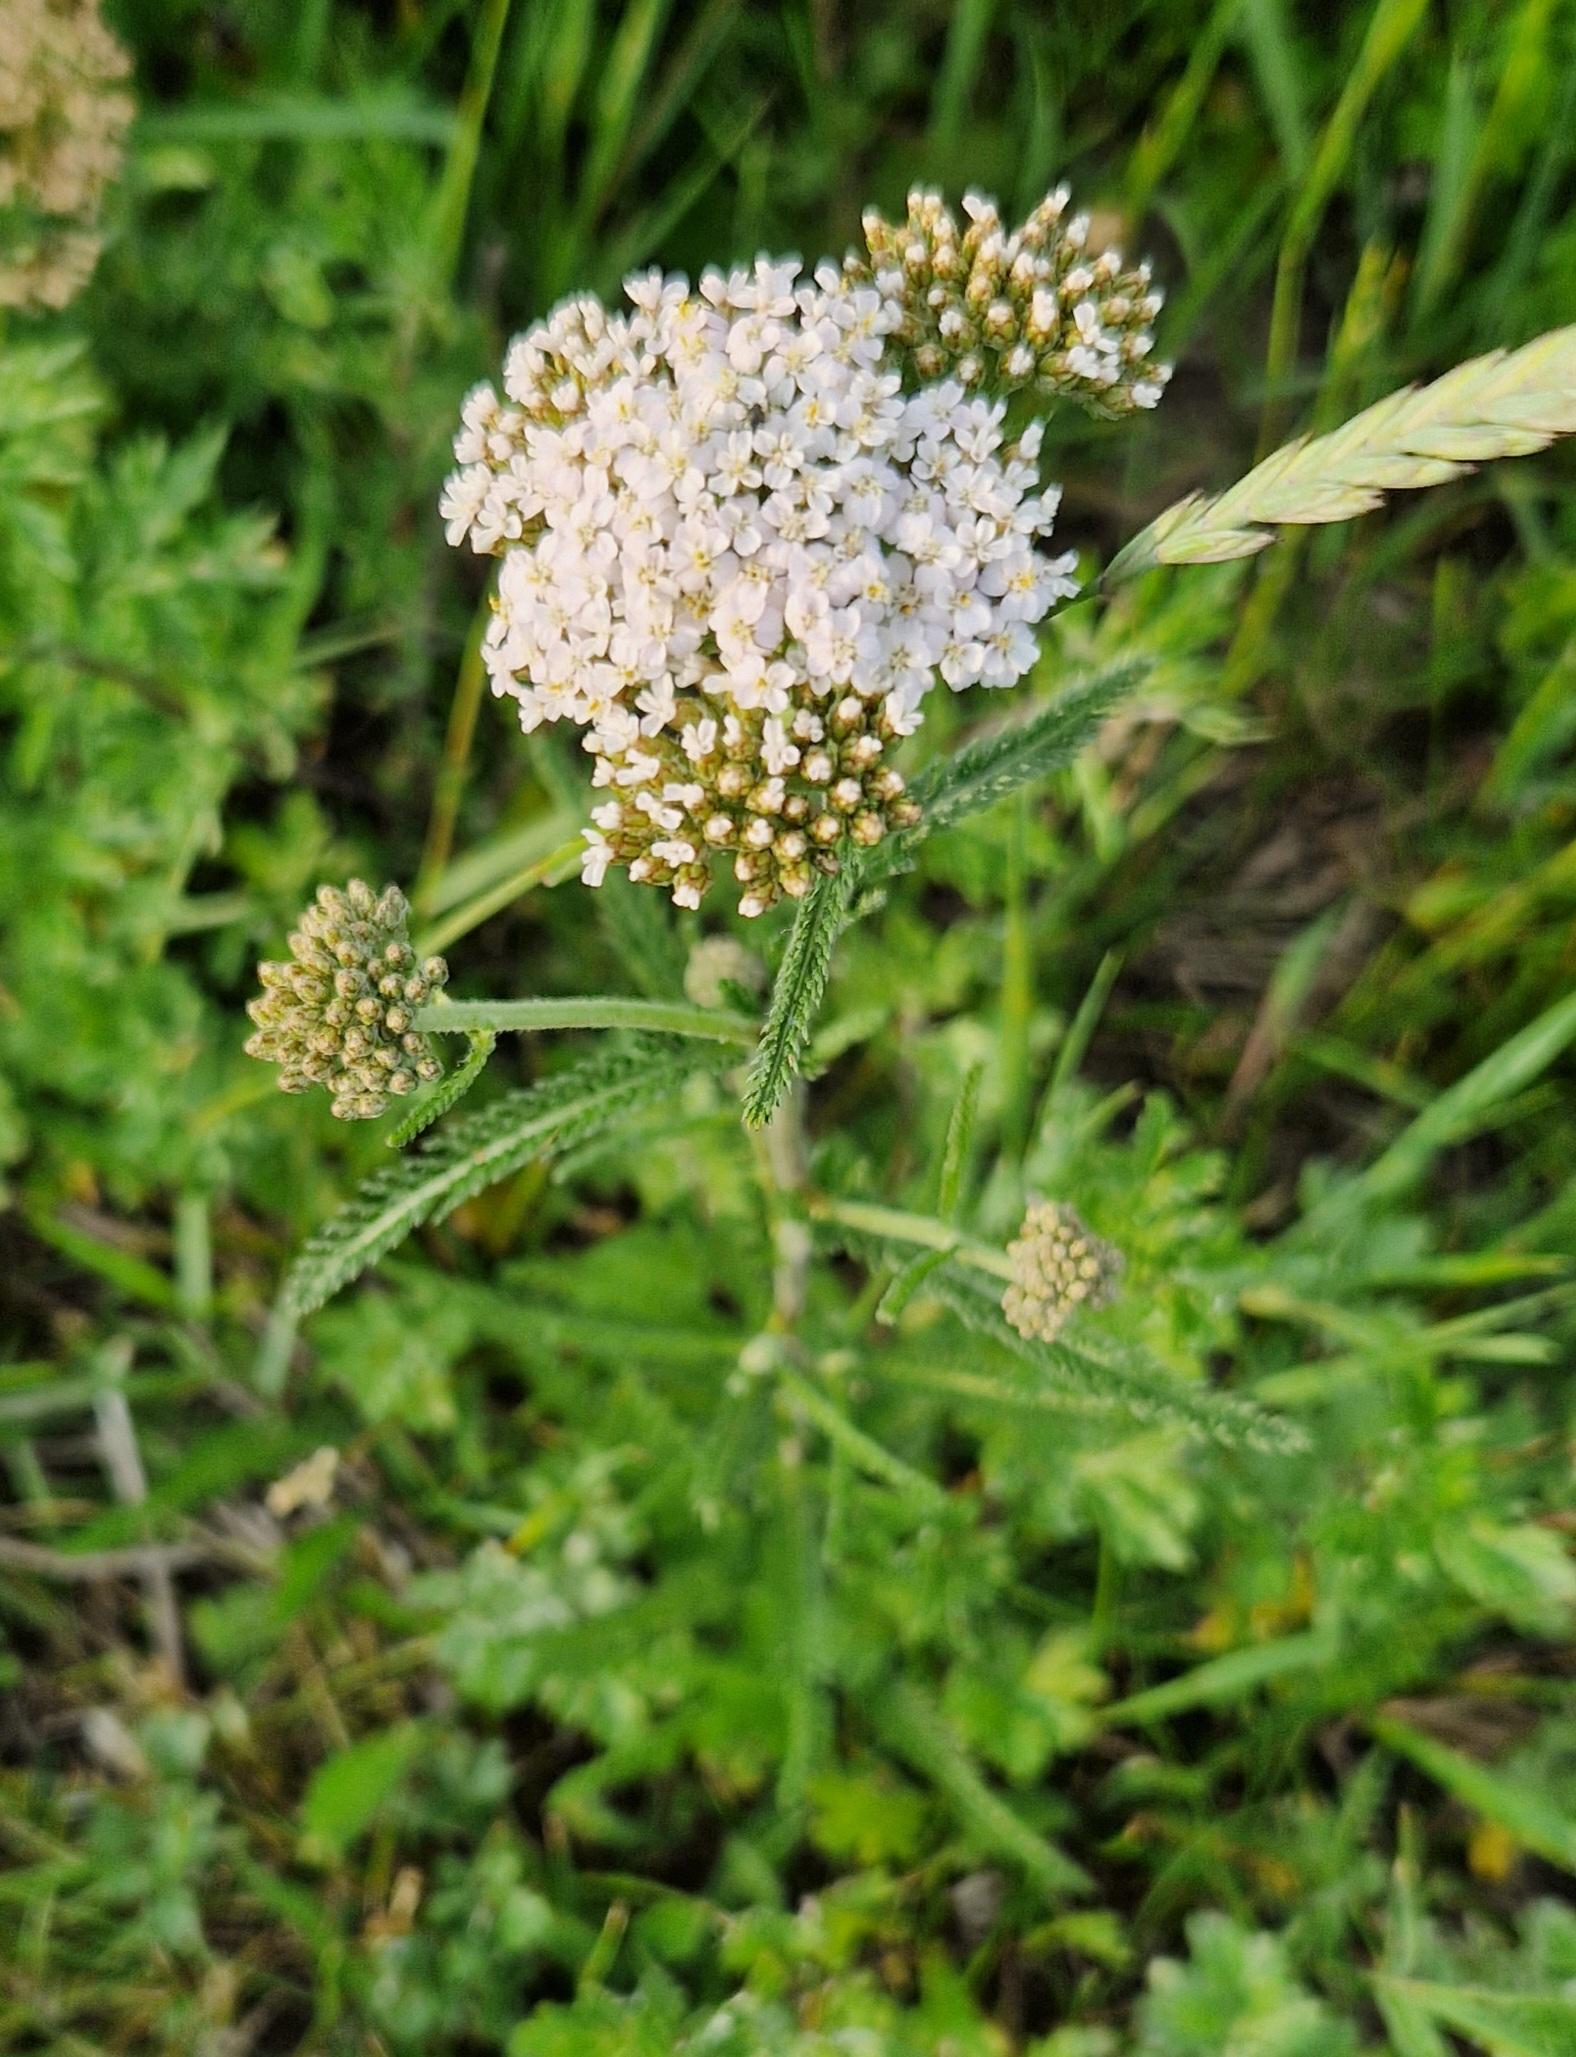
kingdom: Plantae
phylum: Tracheophyta
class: Magnoliopsida
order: Asterales
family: Asteraceae
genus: Achillea
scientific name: Achillea millefolium
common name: Almindelig røllike
